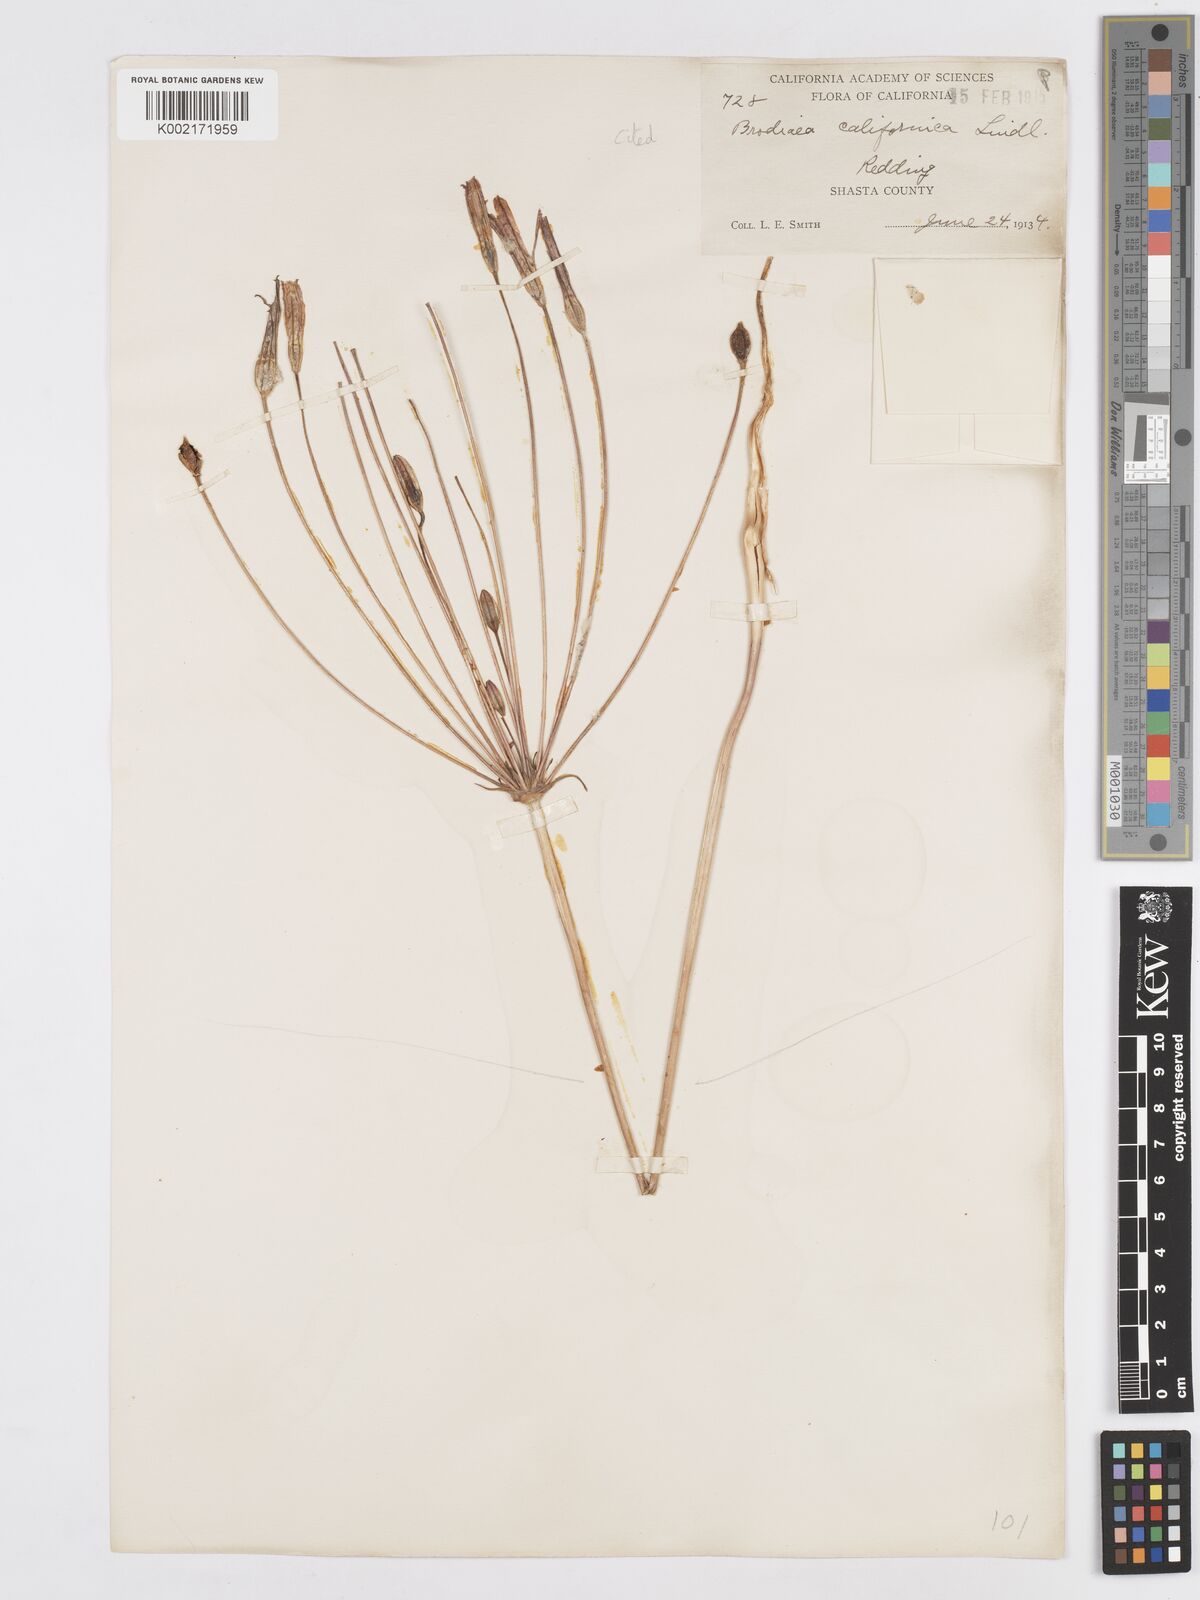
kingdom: Plantae
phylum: Tracheophyta
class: Liliopsida
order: Asparagales
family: Asparagaceae
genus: Brodiaea
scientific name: Brodiaea californica
